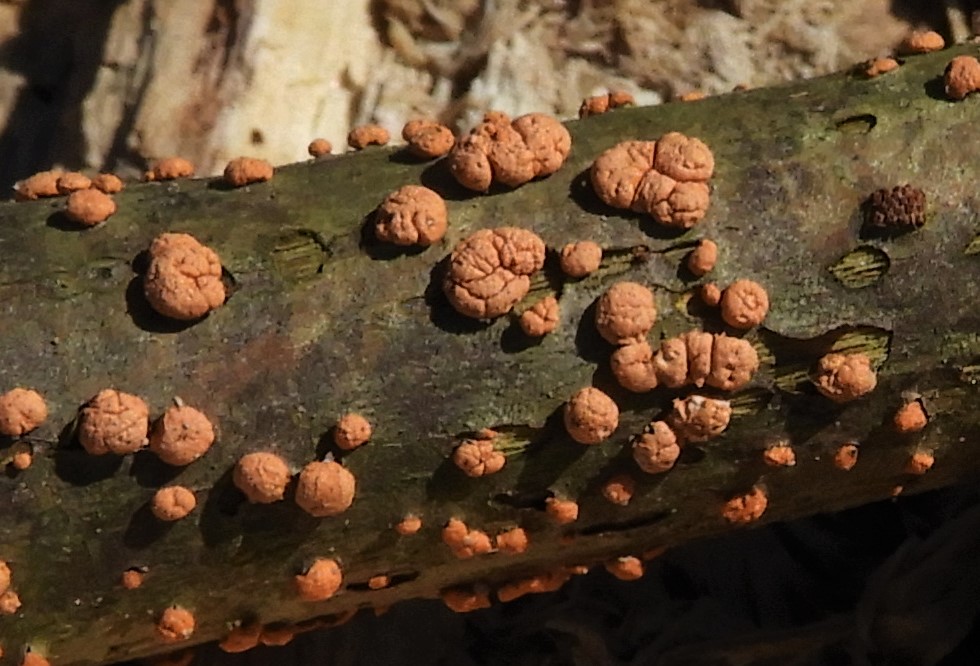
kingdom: Fungi
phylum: Ascomycota
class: Sordariomycetes
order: Hypocreales
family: Nectriaceae
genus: Nectria
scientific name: Nectria cinnabarina
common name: almindelig cinnobersvamp
